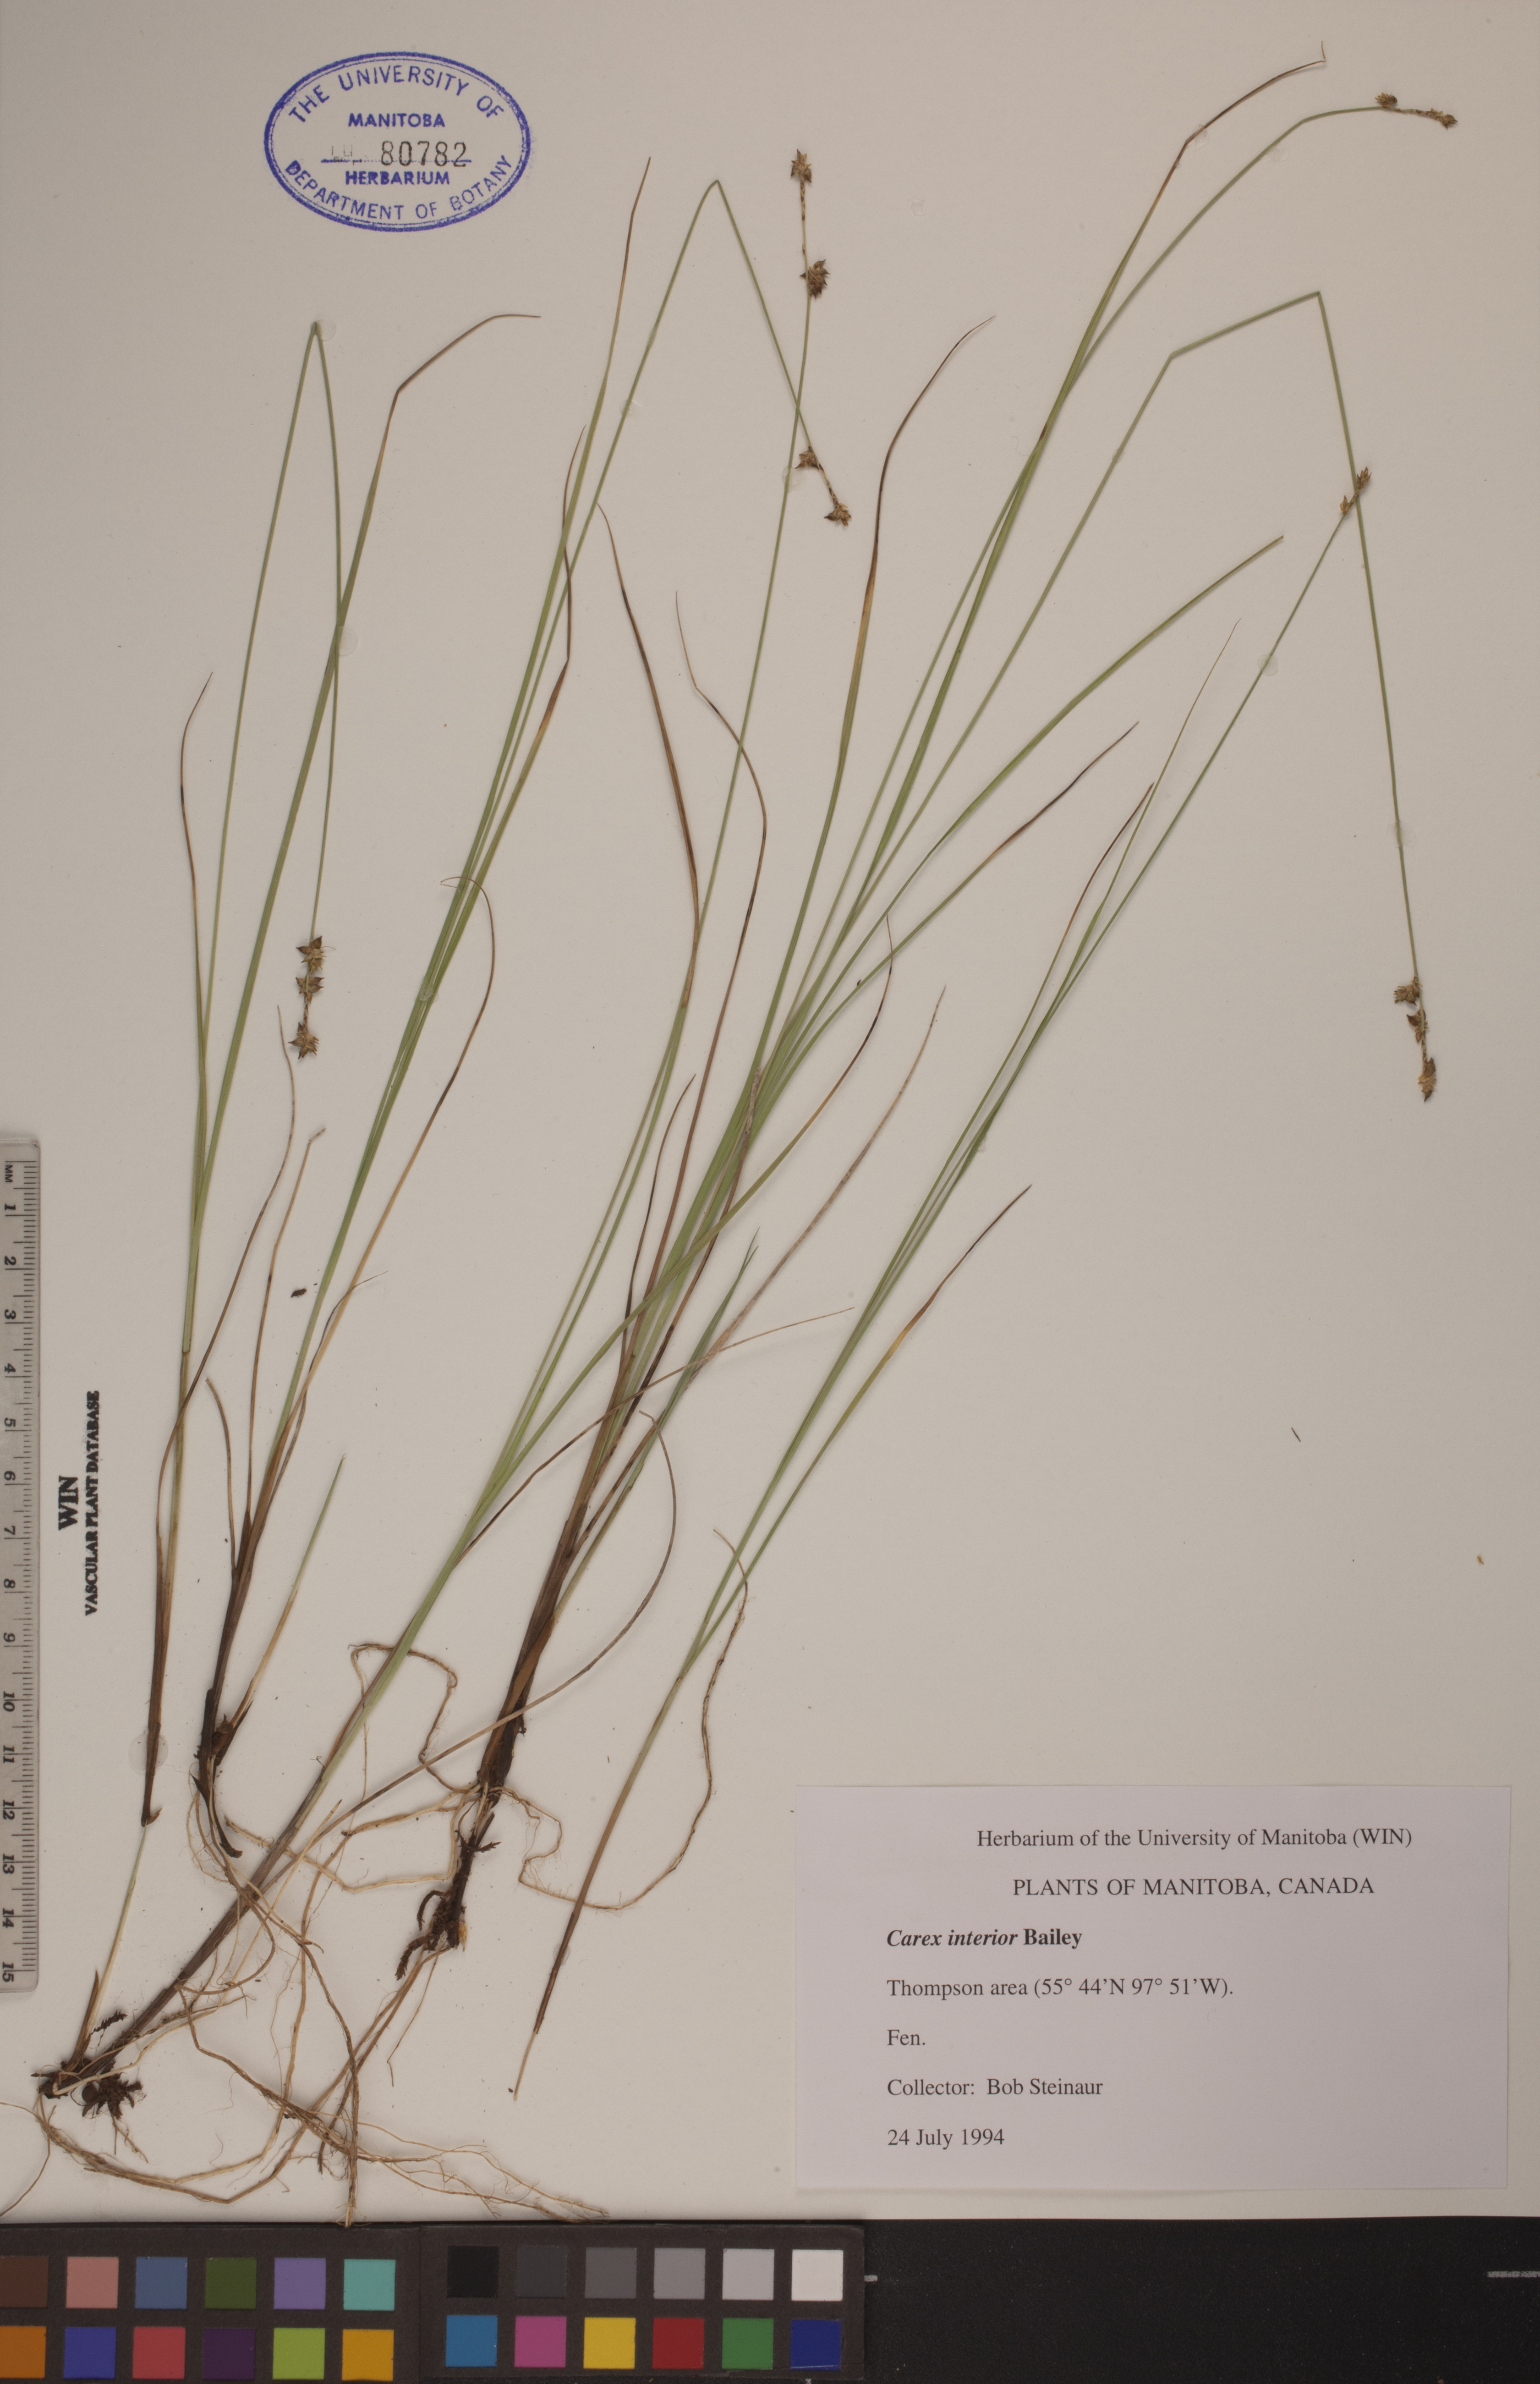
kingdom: Plantae
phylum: Tracheophyta
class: Liliopsida
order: Poales
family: Cyperaceae
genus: Carex
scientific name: Carex interior
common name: Inland sedge
